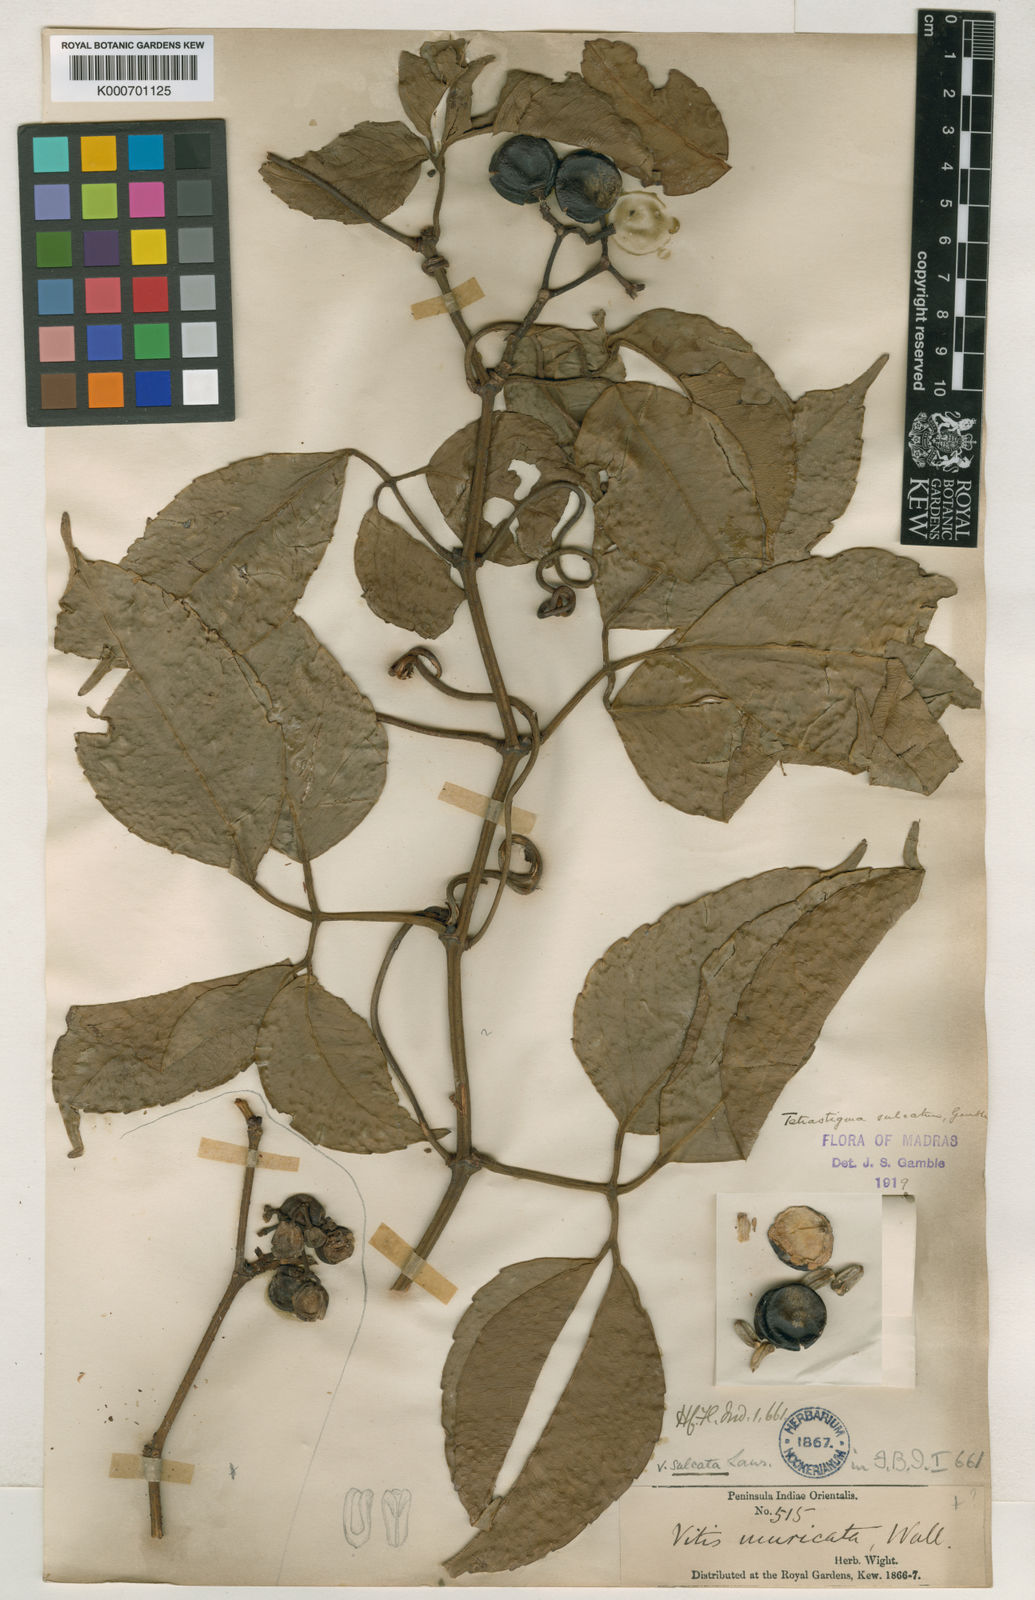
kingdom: Plantae
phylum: Tracheophyta
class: Magnoliopsida
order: Vitales
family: Vitaceae
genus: Tetrastigma
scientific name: Tetrastigma
